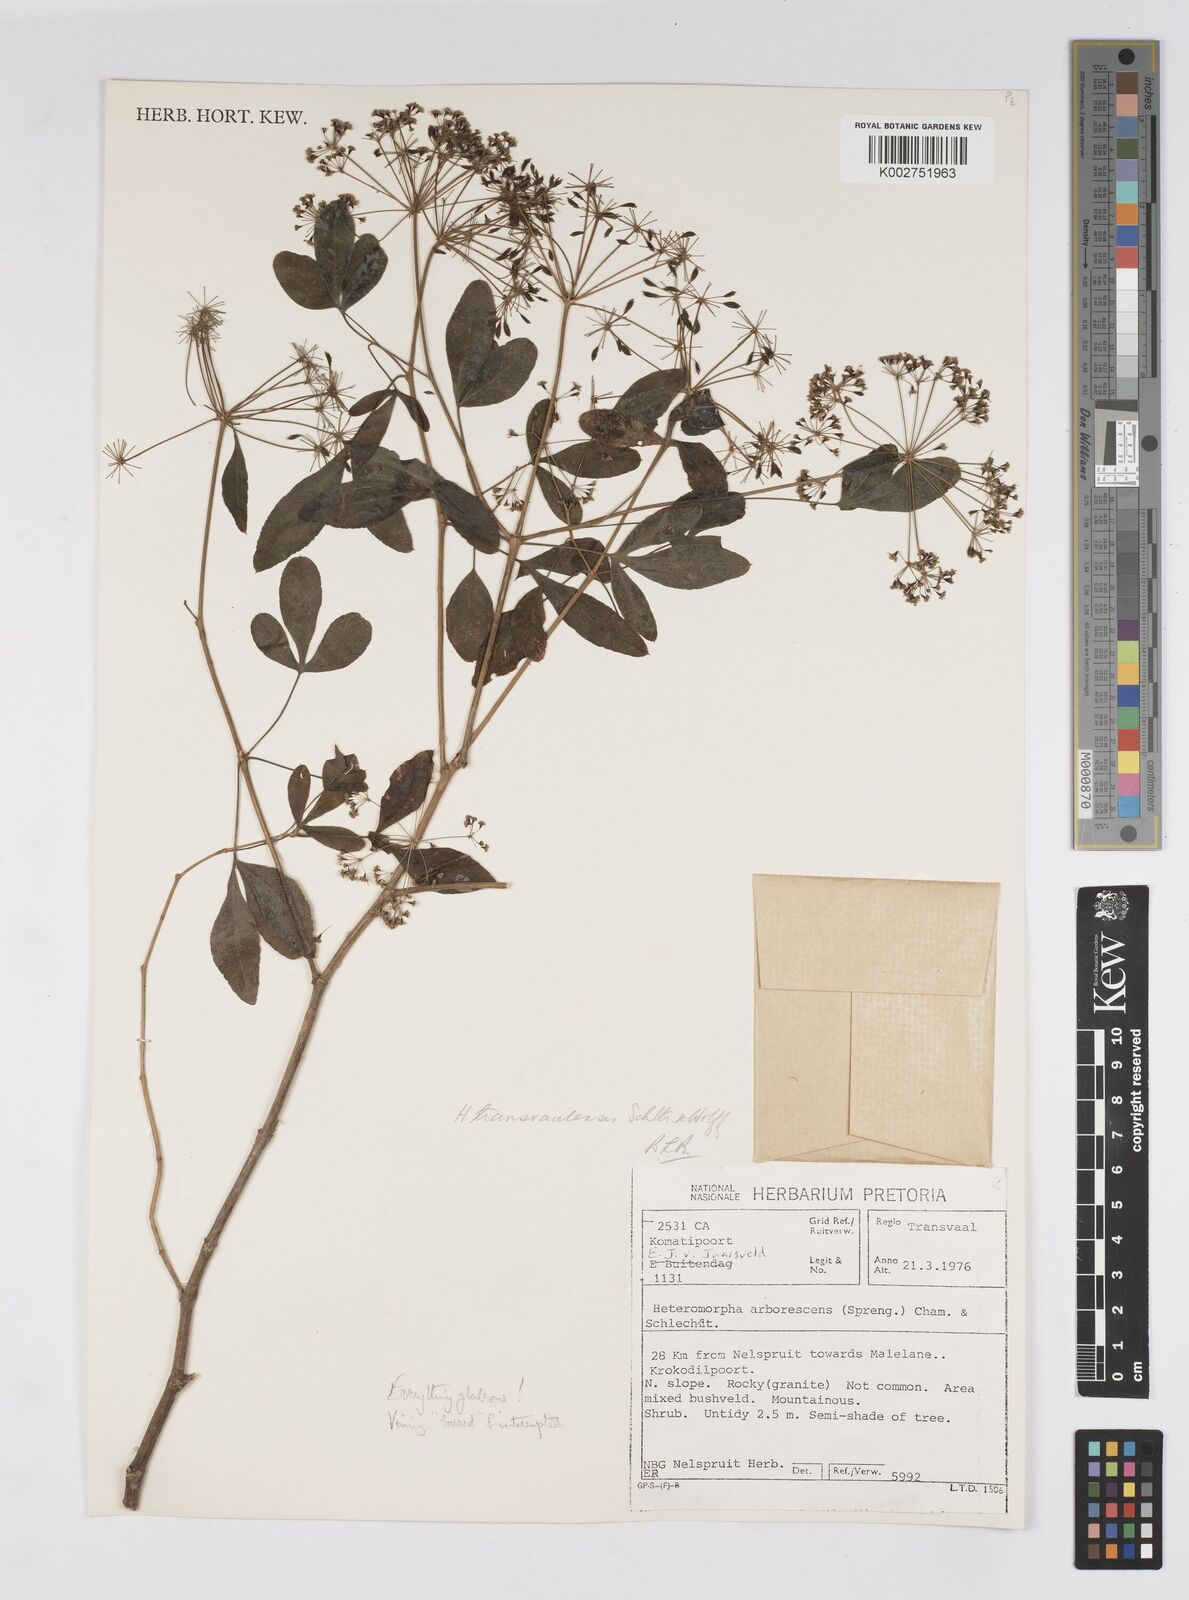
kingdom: Plantae
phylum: Tracheophyta
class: Magnoliopsida
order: Apiales
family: Apiaceae
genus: Heteromorpha
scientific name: Heteromorpha stenophylla
